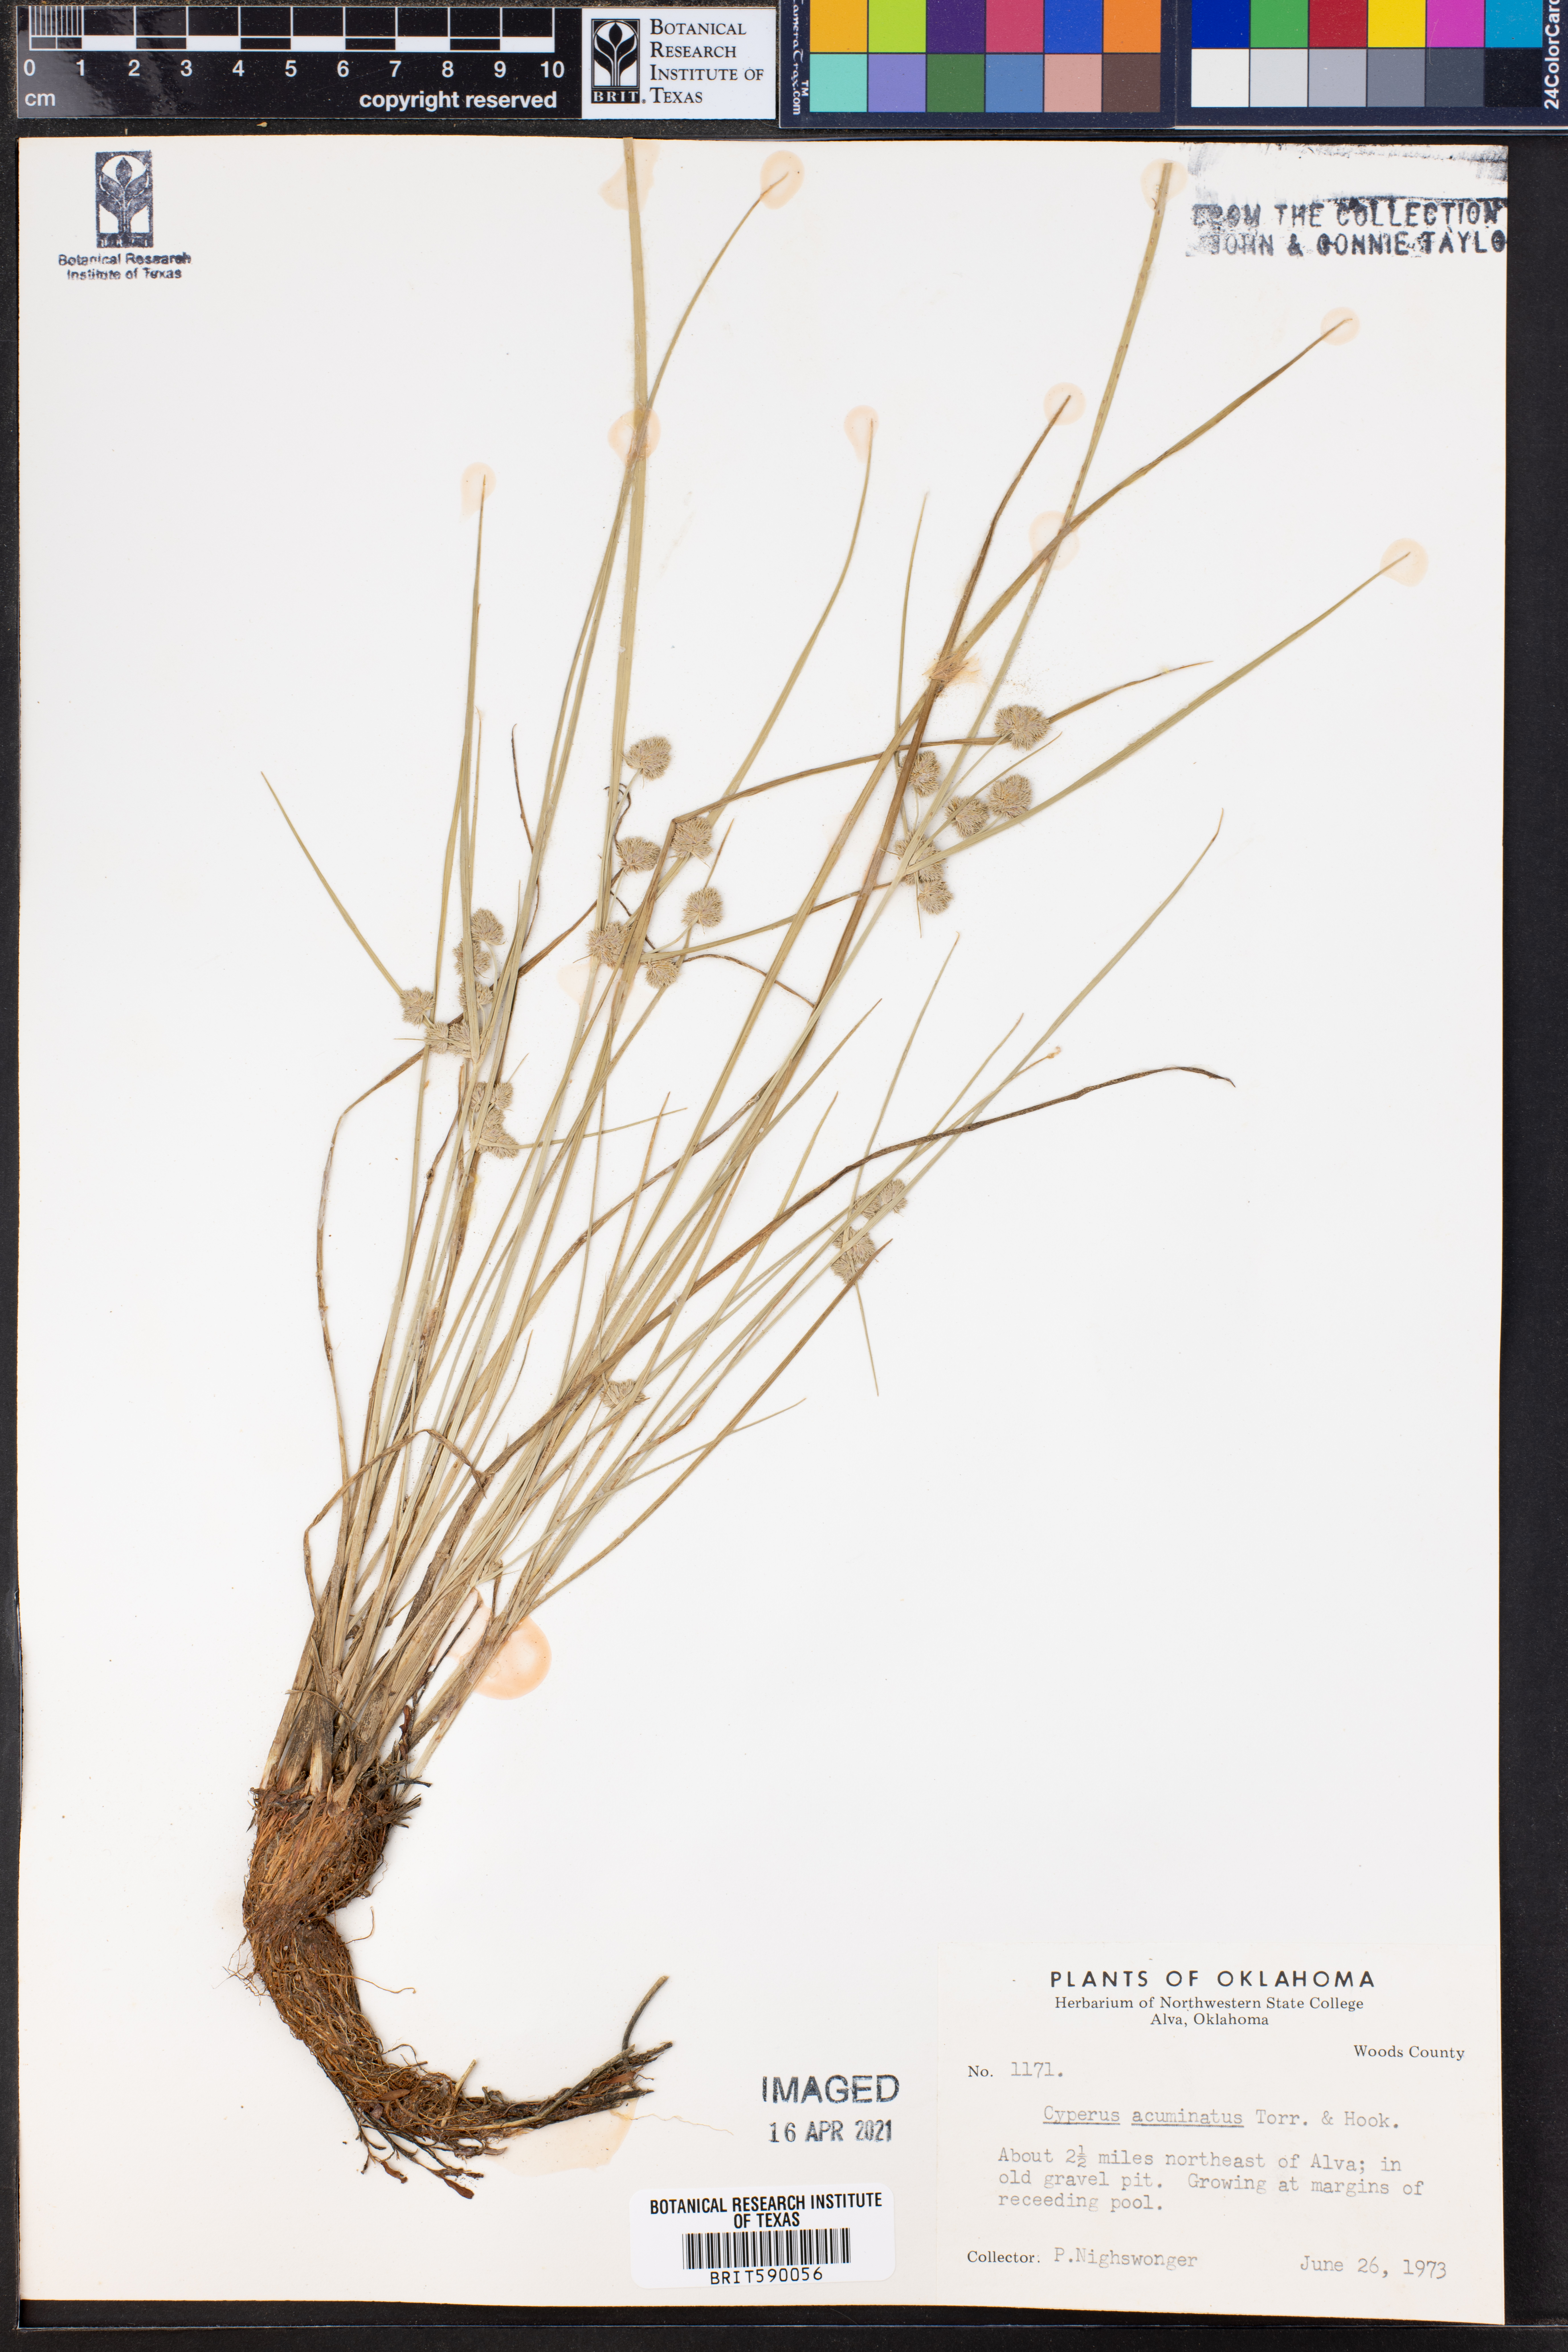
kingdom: Plantae
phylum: Tracheophyta
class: Liliopsida
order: Poales
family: Cyperaceae
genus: Cyperus
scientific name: Cyperus acuminatus
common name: Short-pointed cyperus
